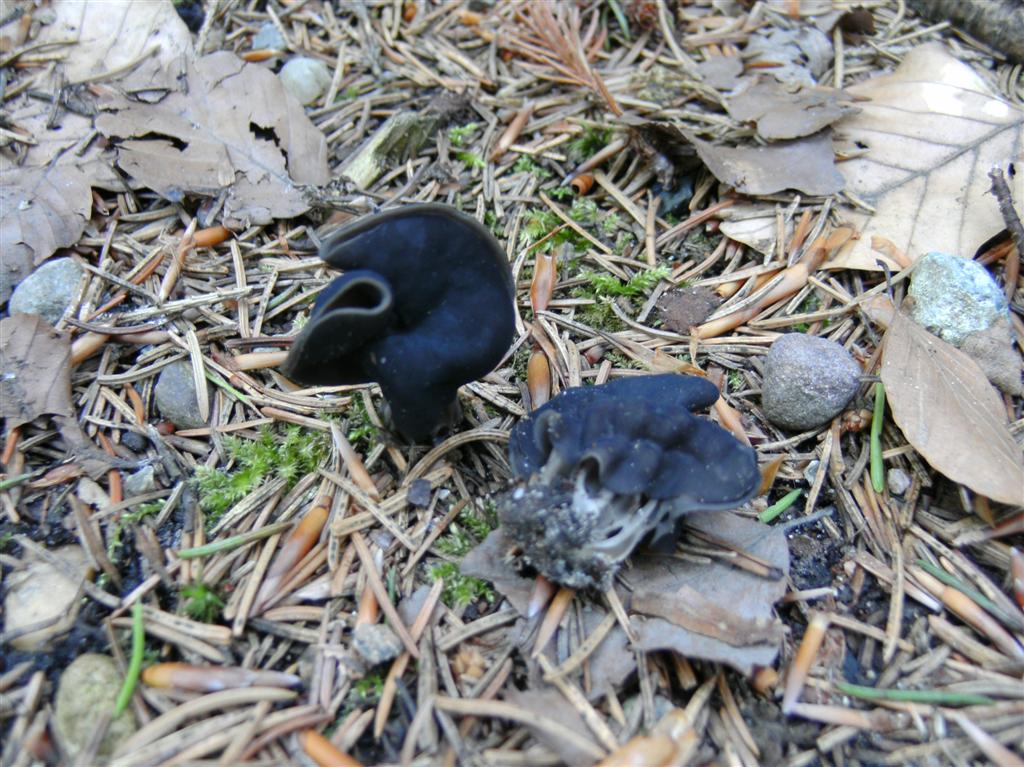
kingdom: Fungi
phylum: Ascomycota
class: Pezizomycetes
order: Pezizales
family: Helvellaceae
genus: Helvella
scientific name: Helvella lacunosa
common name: grubet foldhat
